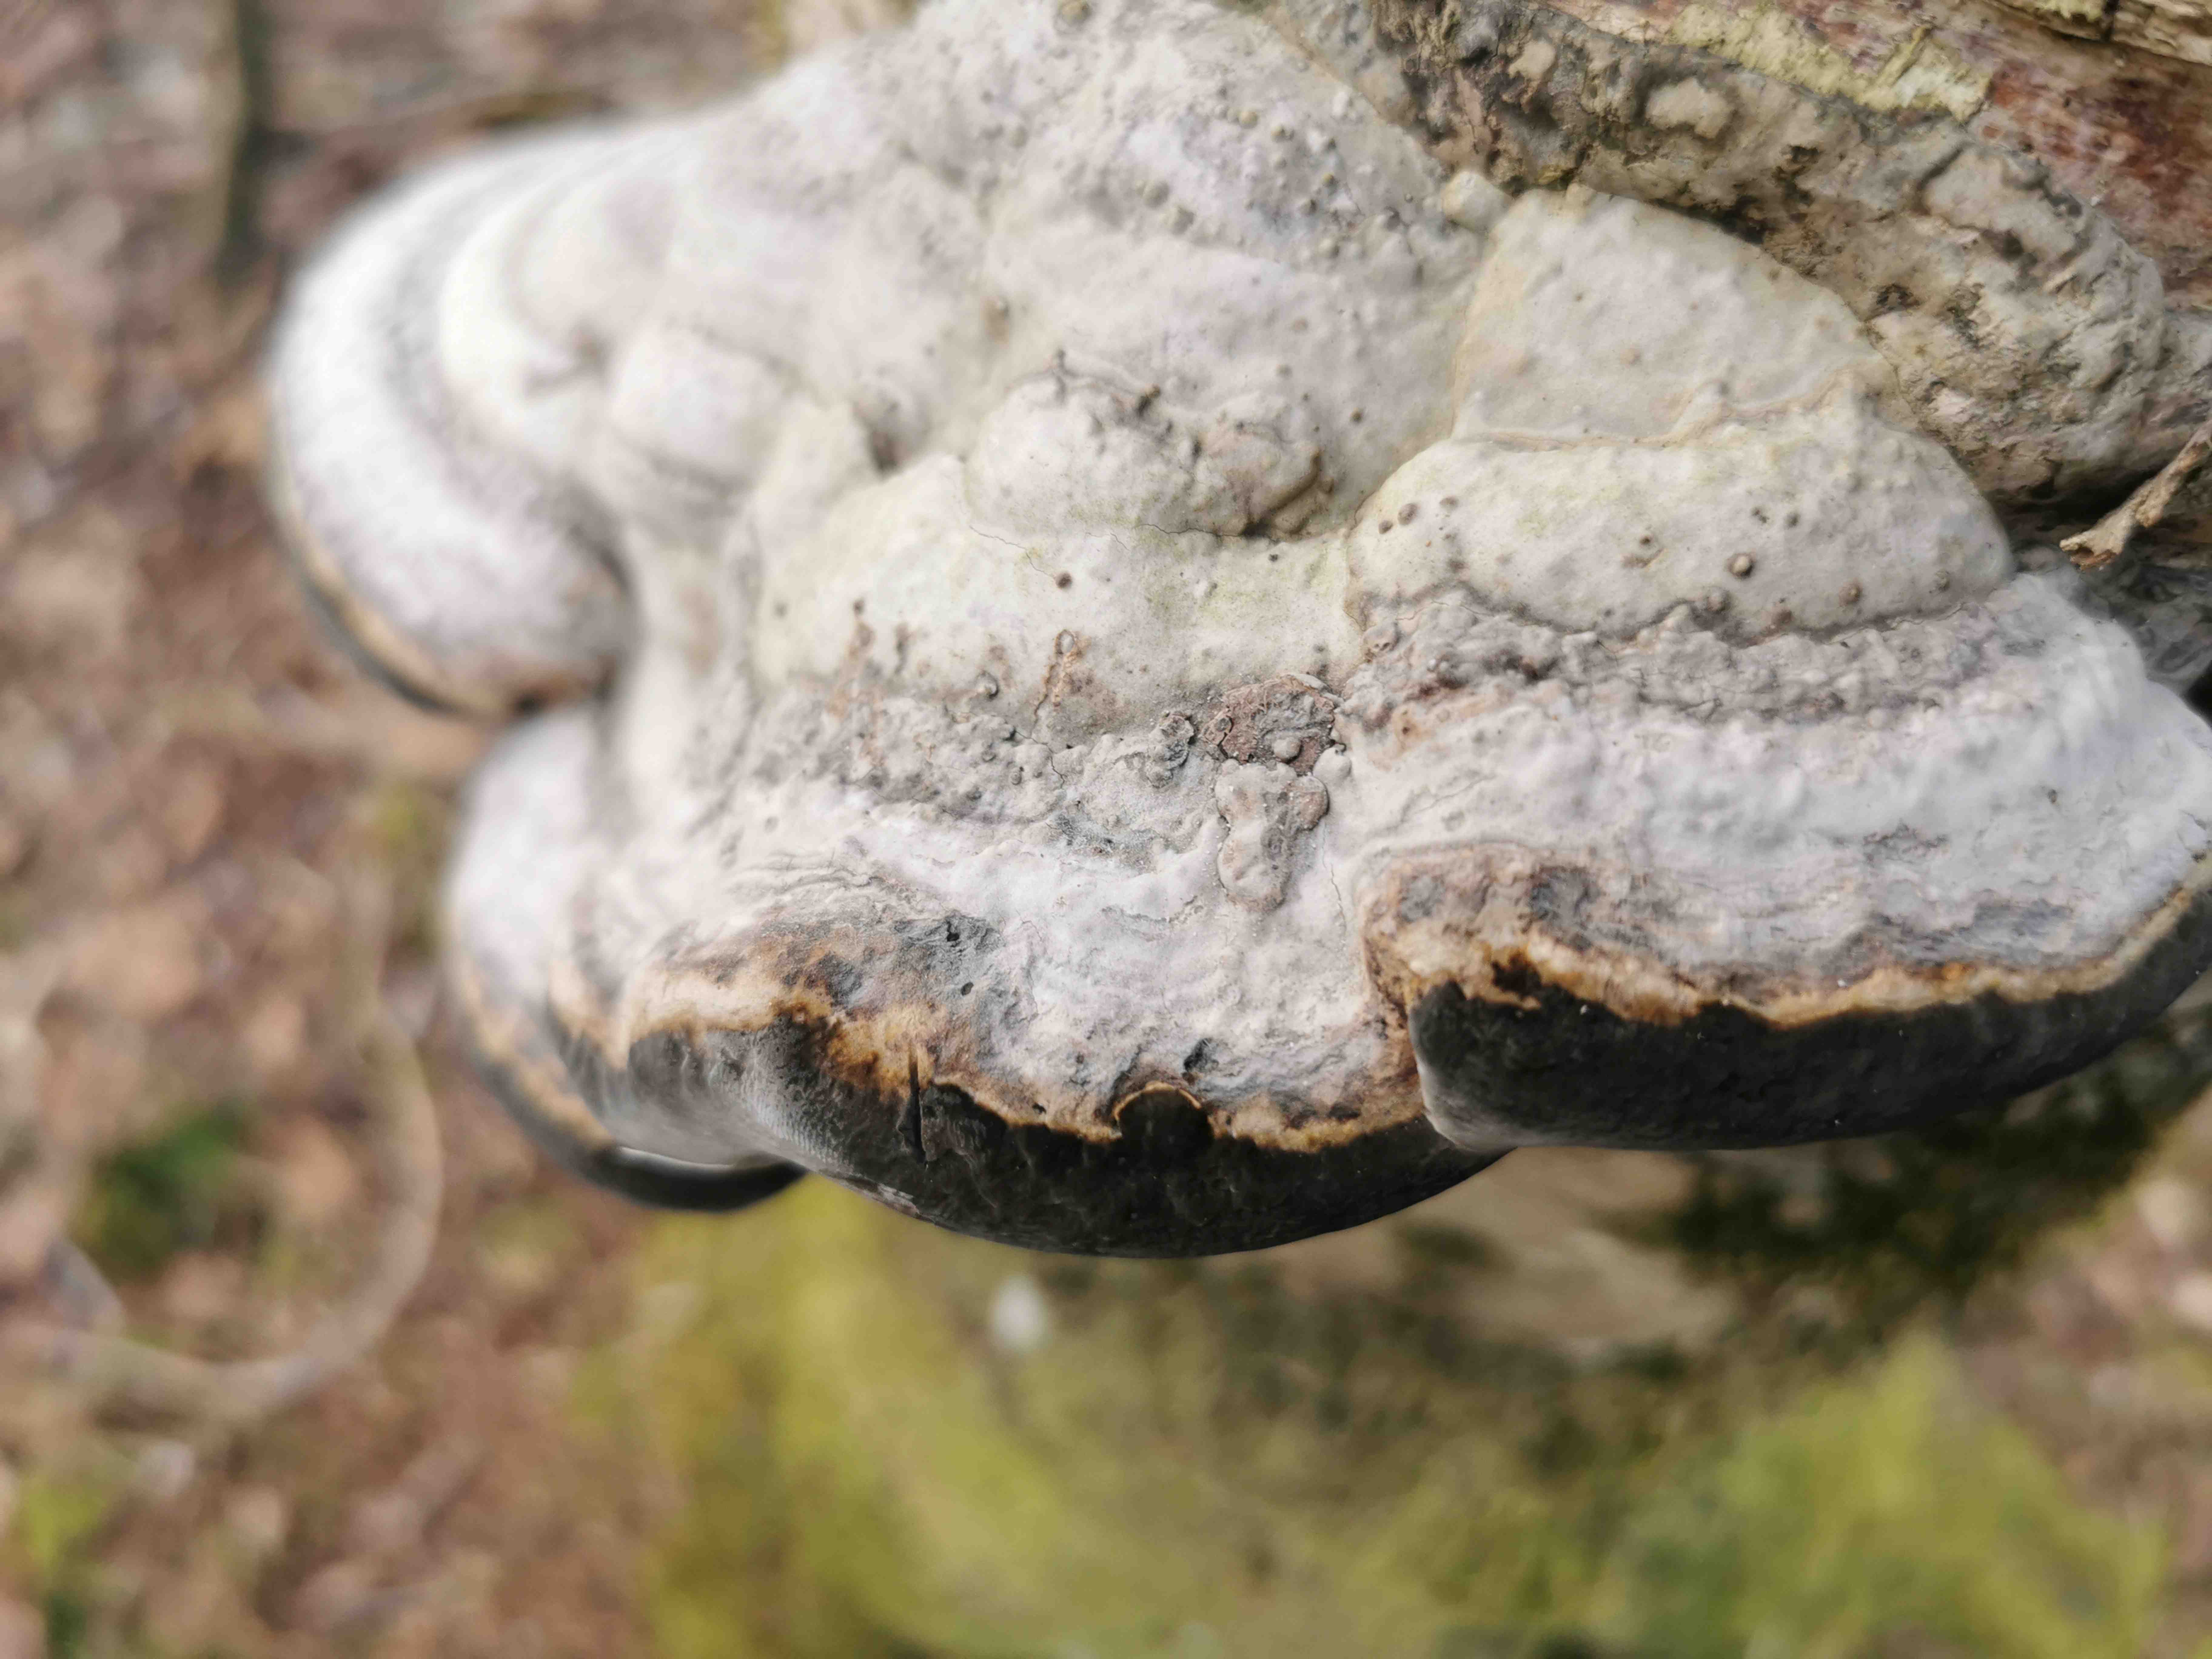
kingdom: Fungi
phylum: Basidiomycota
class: Agaricomycetes
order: Polyporales
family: Polyporaceae
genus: Fomes
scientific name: Fomes fomentarius
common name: tøndersvamp
